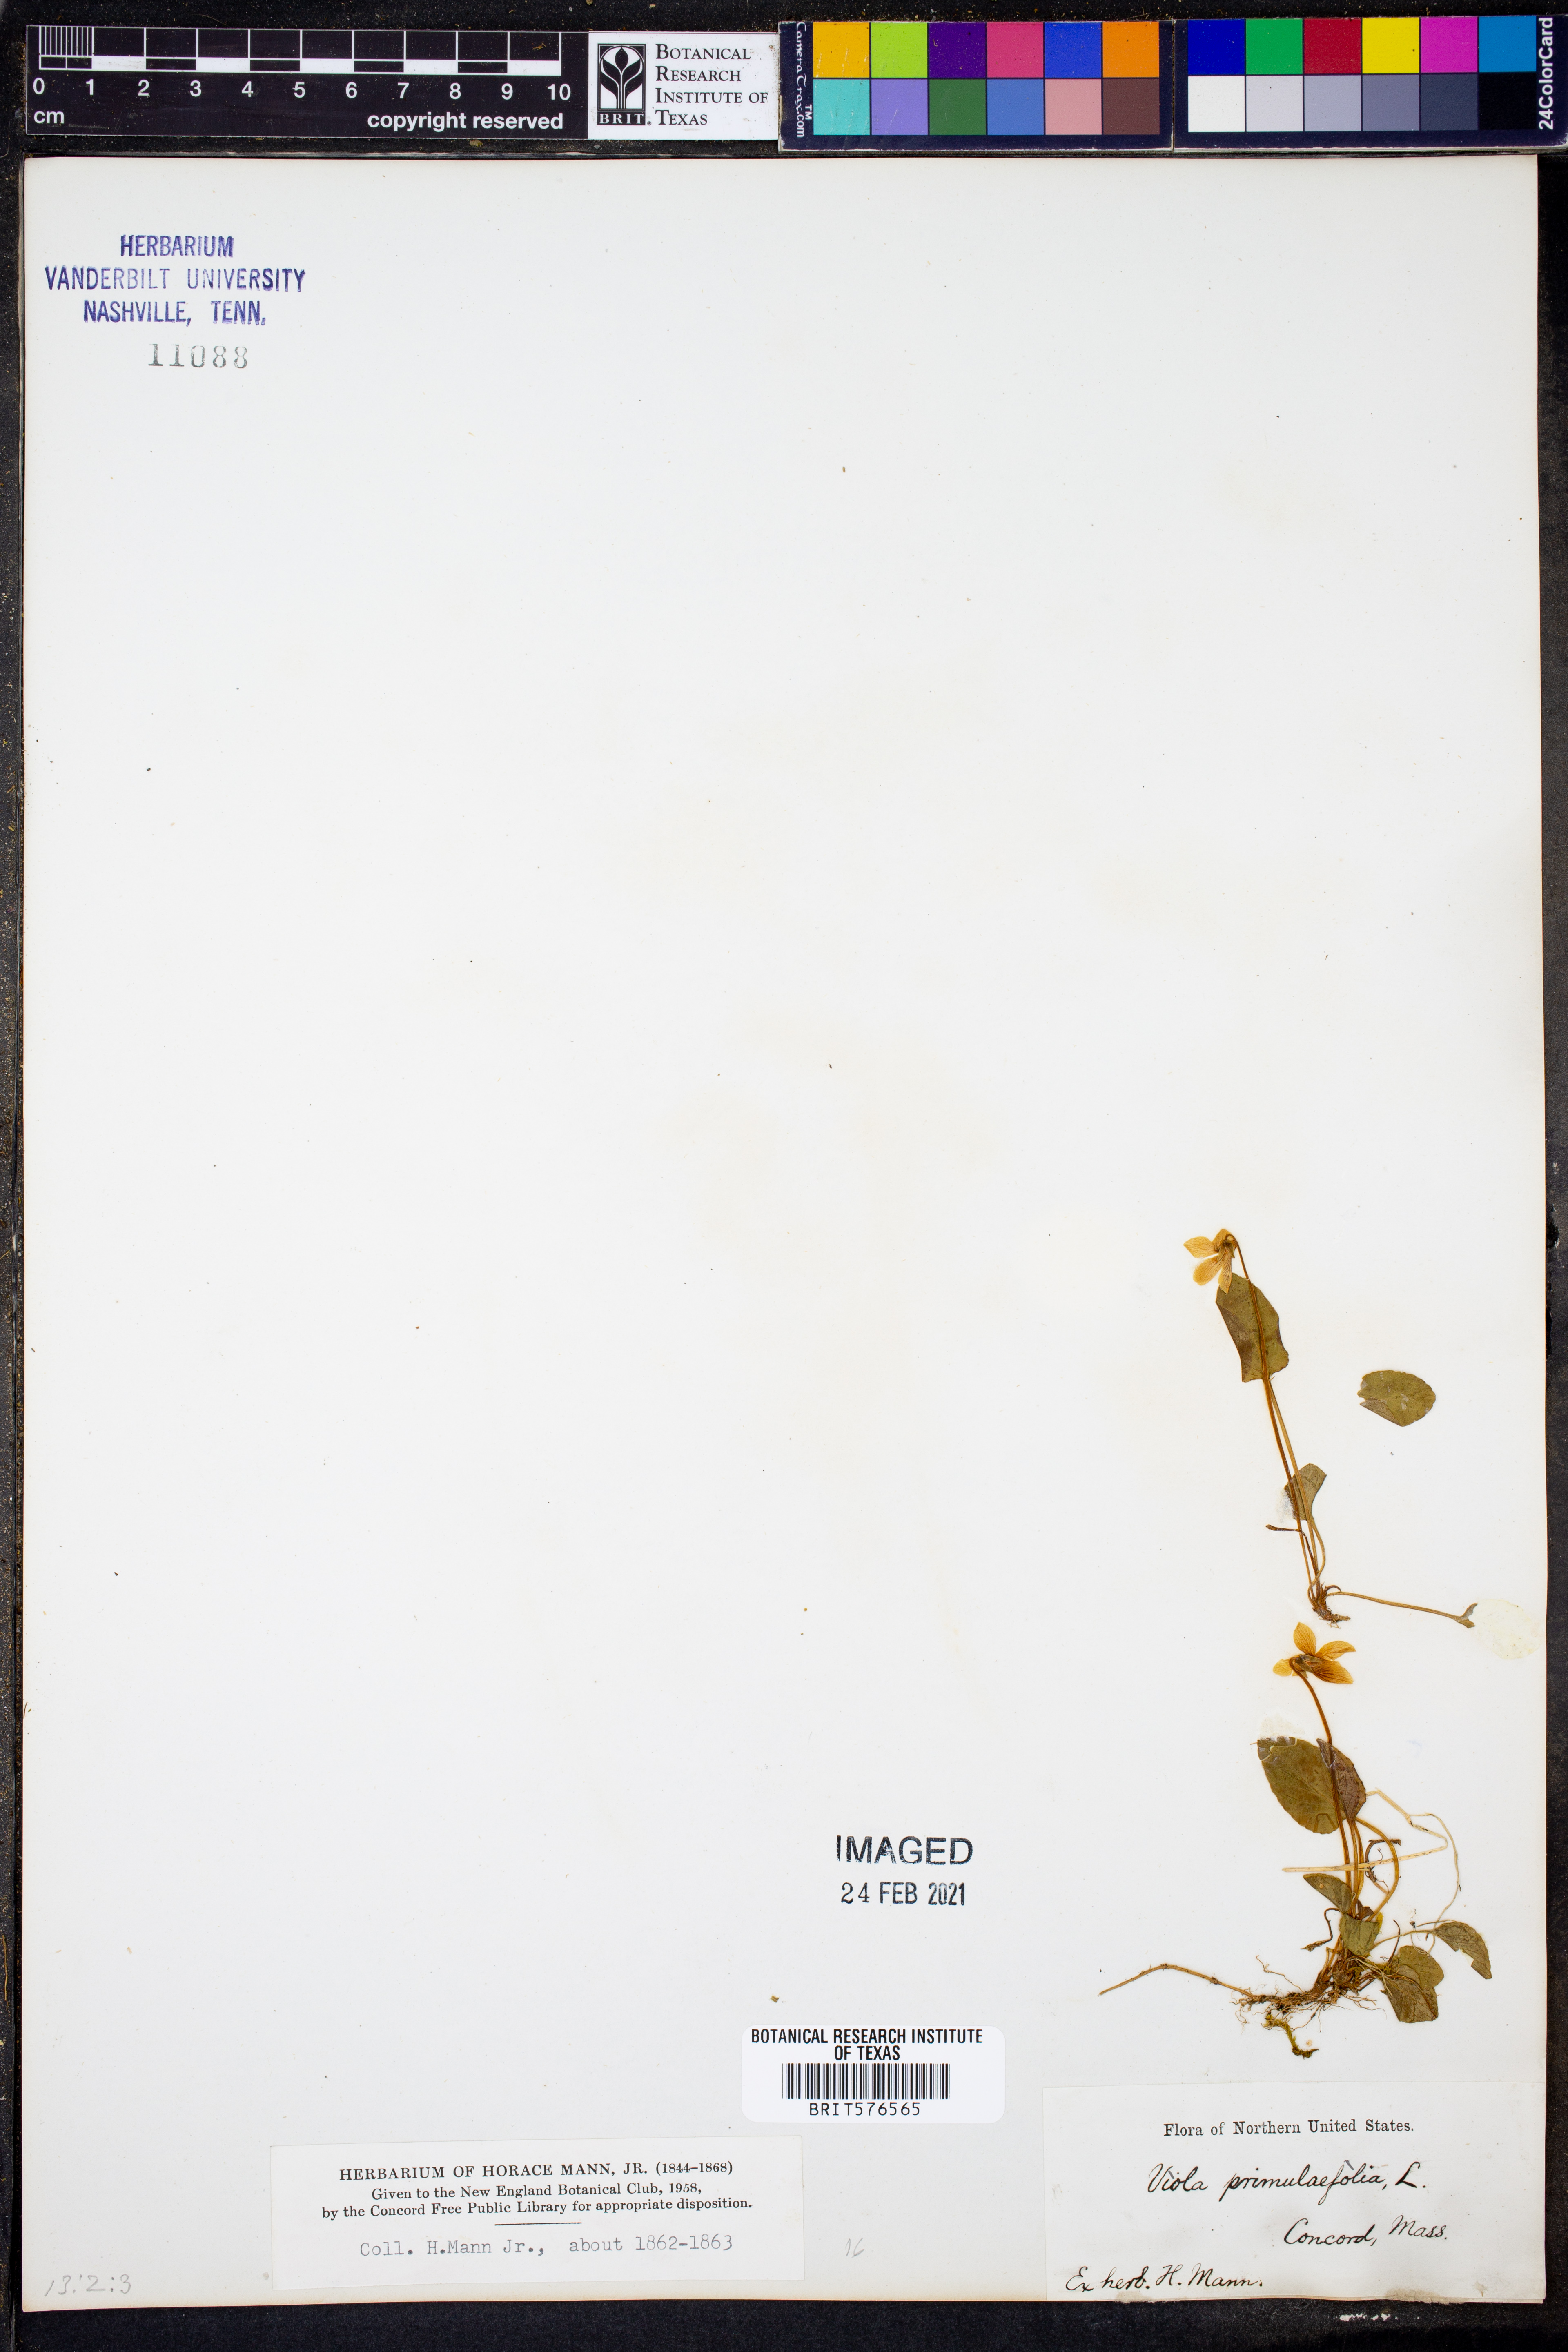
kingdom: Plantae
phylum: Tracheophyta
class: Magnoliopsida
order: Malpighiales
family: Violaceae
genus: Viola
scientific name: Viola primulifolia
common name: Primrose-leaf violet
